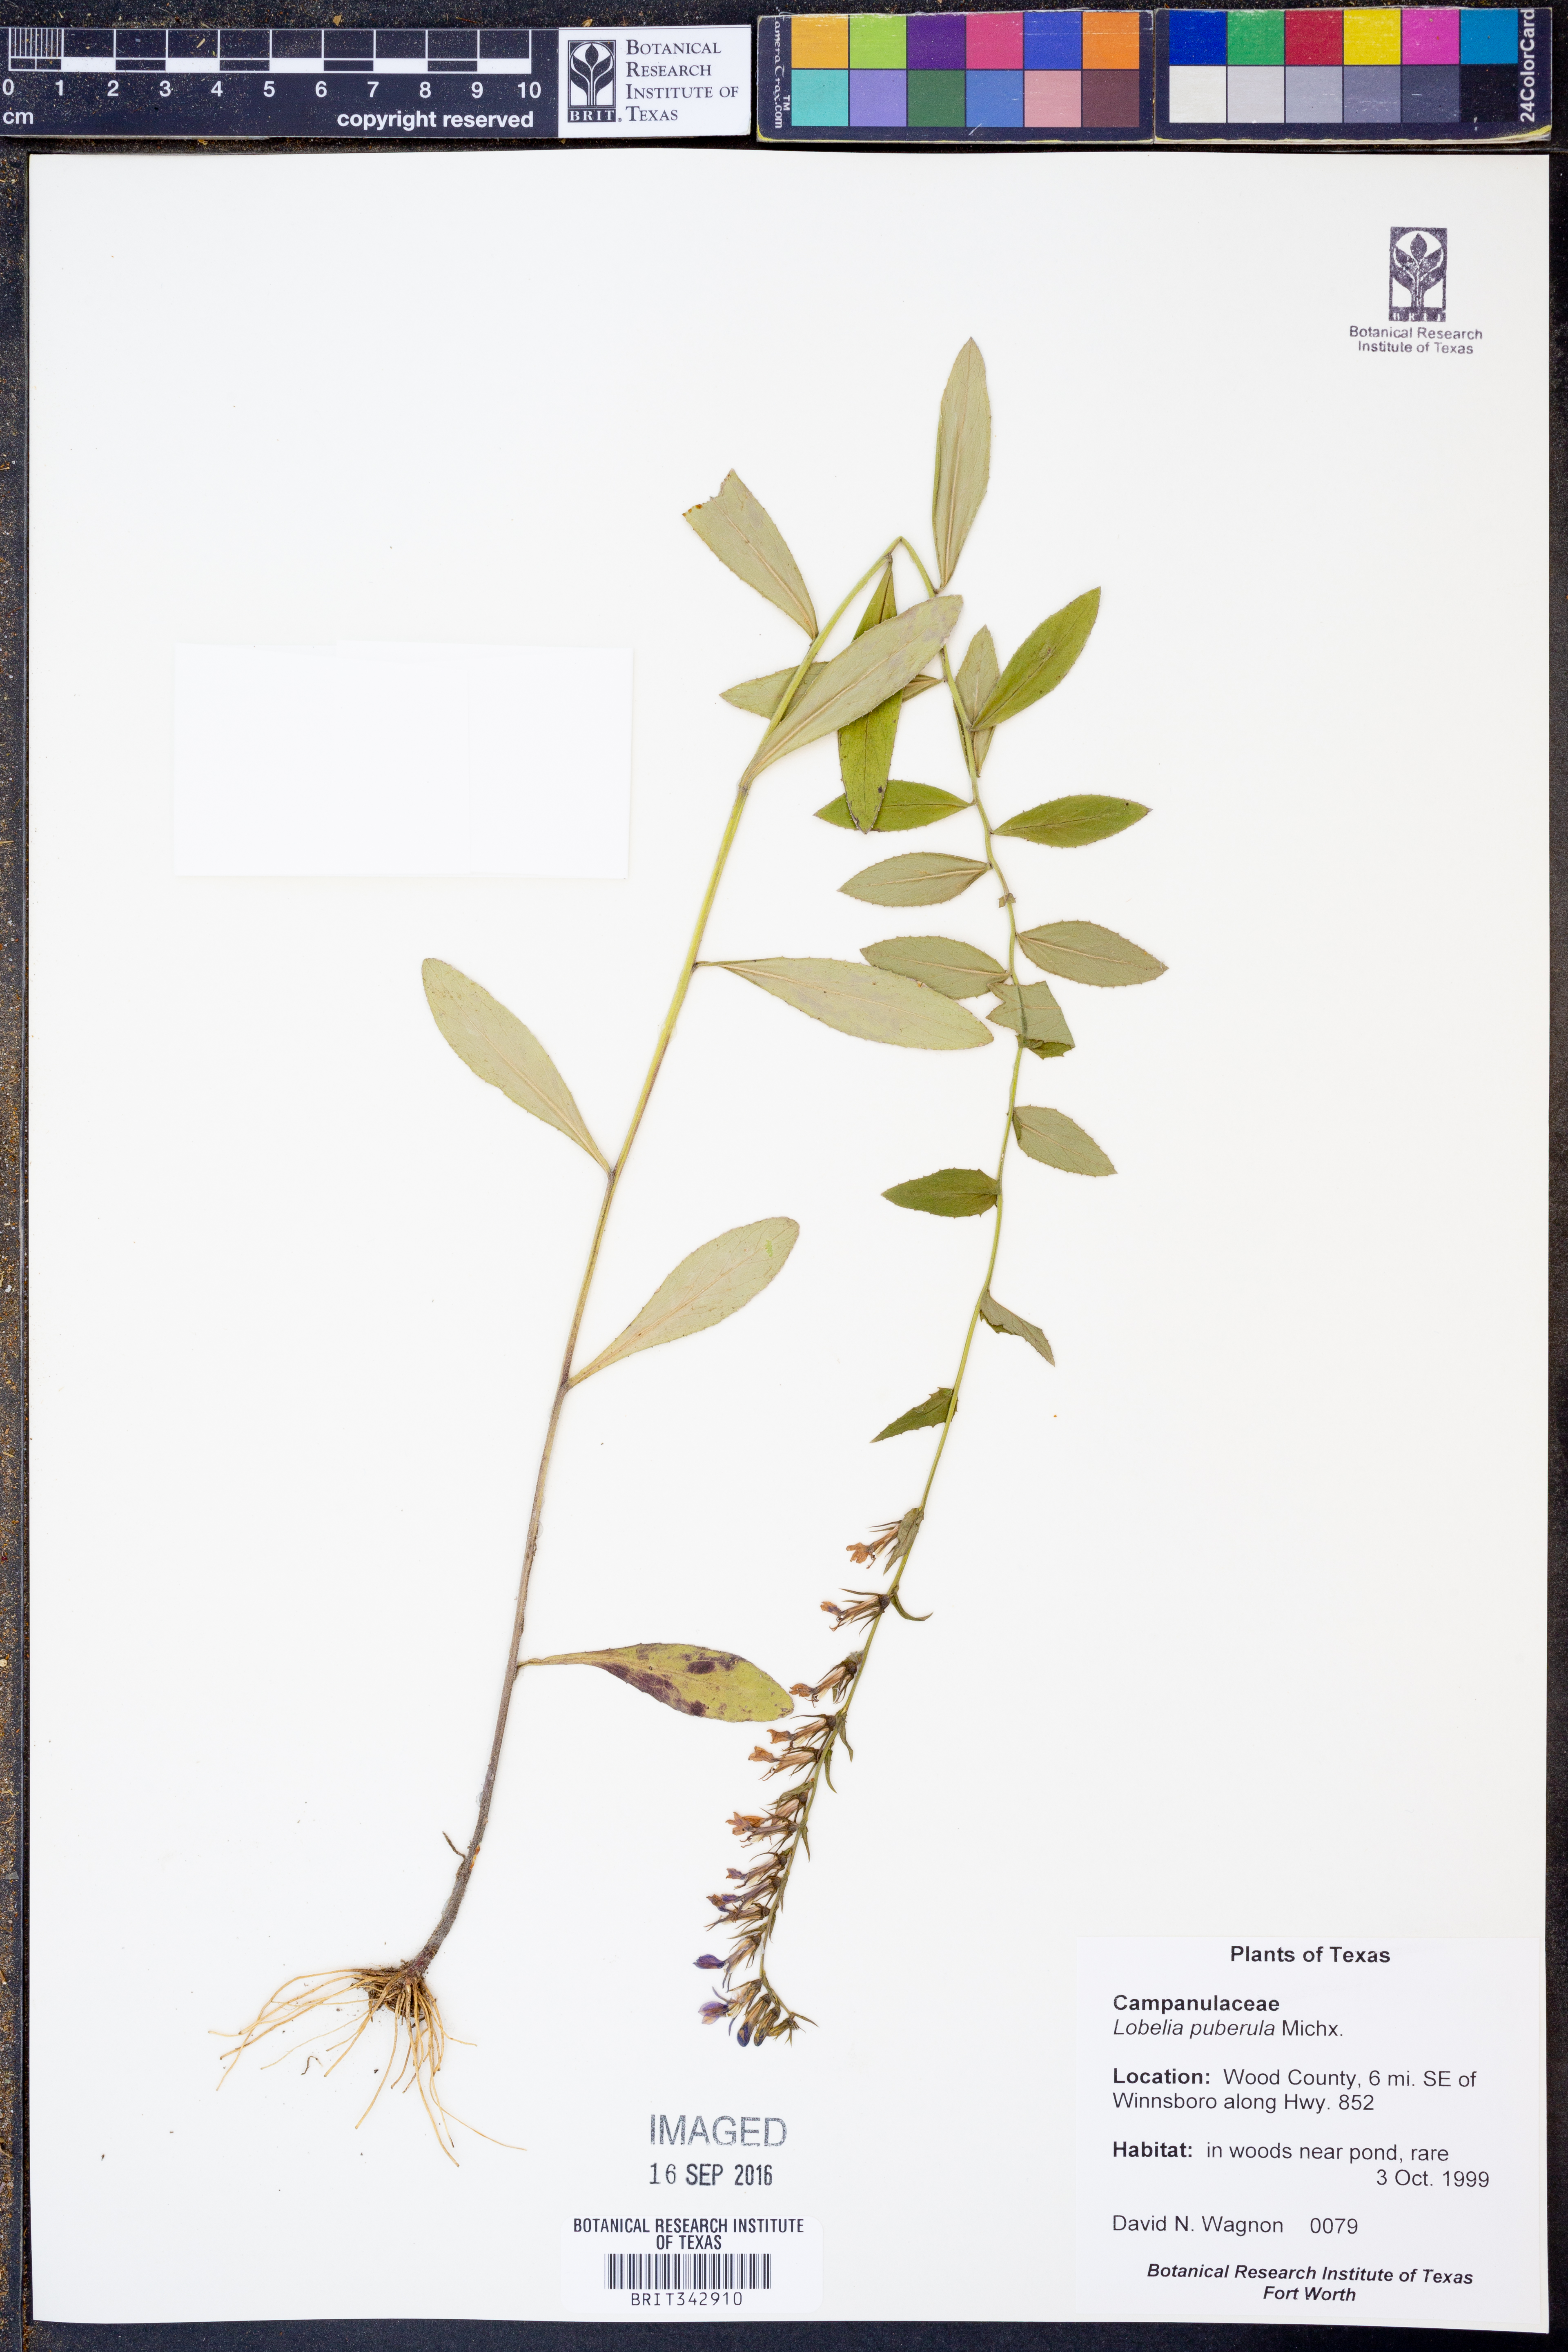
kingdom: Plantae
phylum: Tracheophyta
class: Magnoliopsida
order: Asterales
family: Campanulaceae
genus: Lobelia
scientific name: Lobelia puberula
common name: Purple dewdrop
